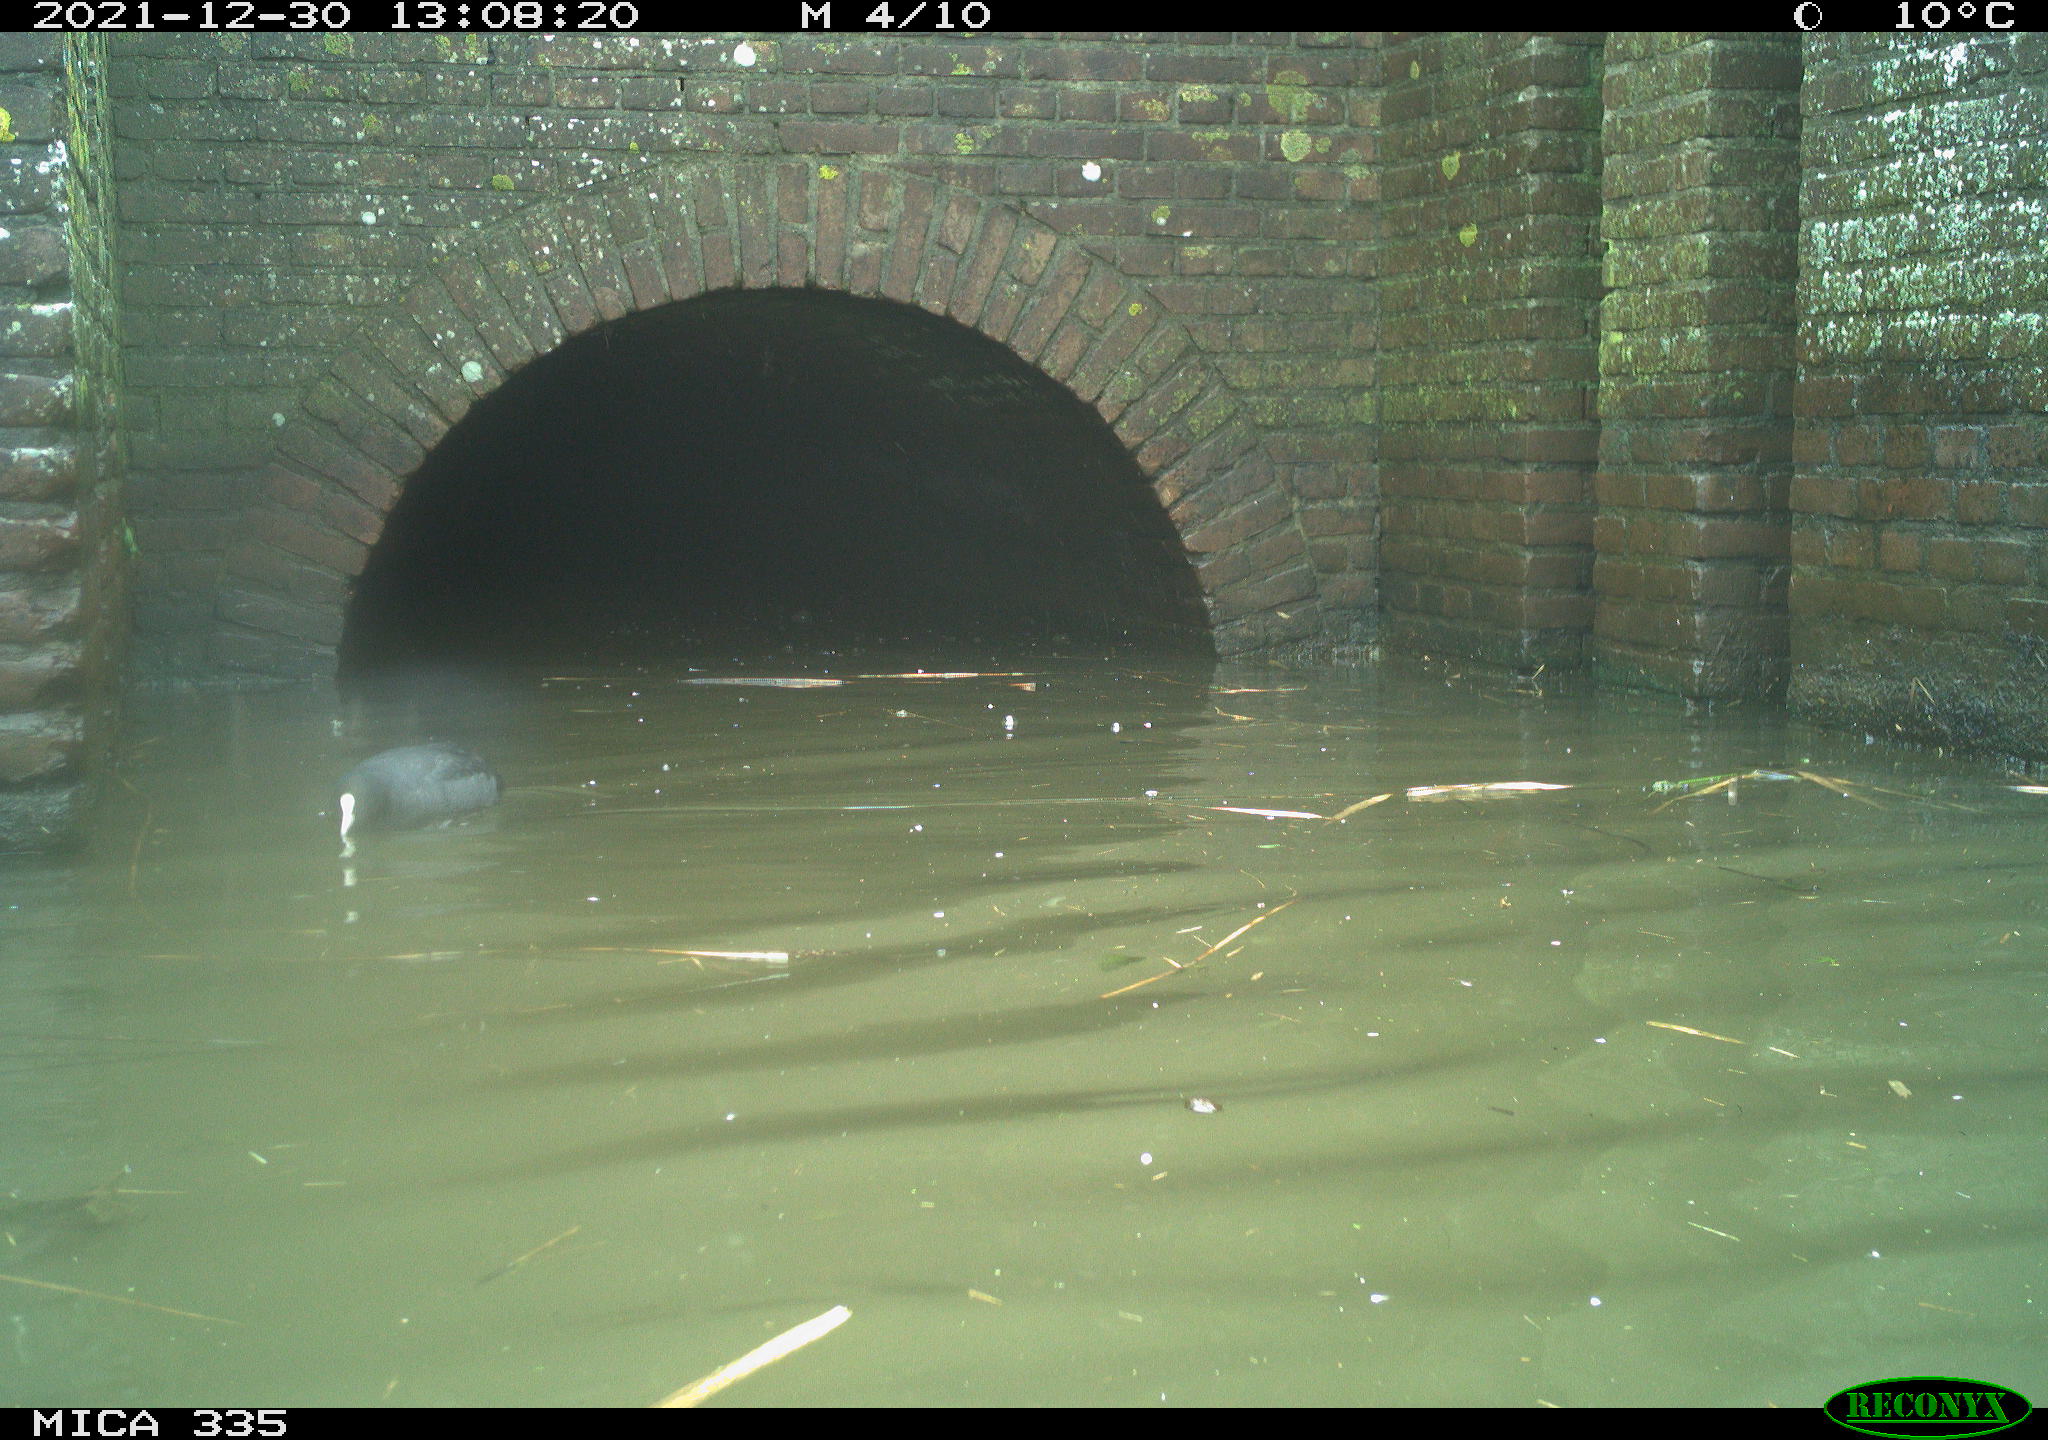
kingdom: Animalia
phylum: Chordata
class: Aves
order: Gruiformes
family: Rallidae
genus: Fulica
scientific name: Fulica atra
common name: Eurasian coot
